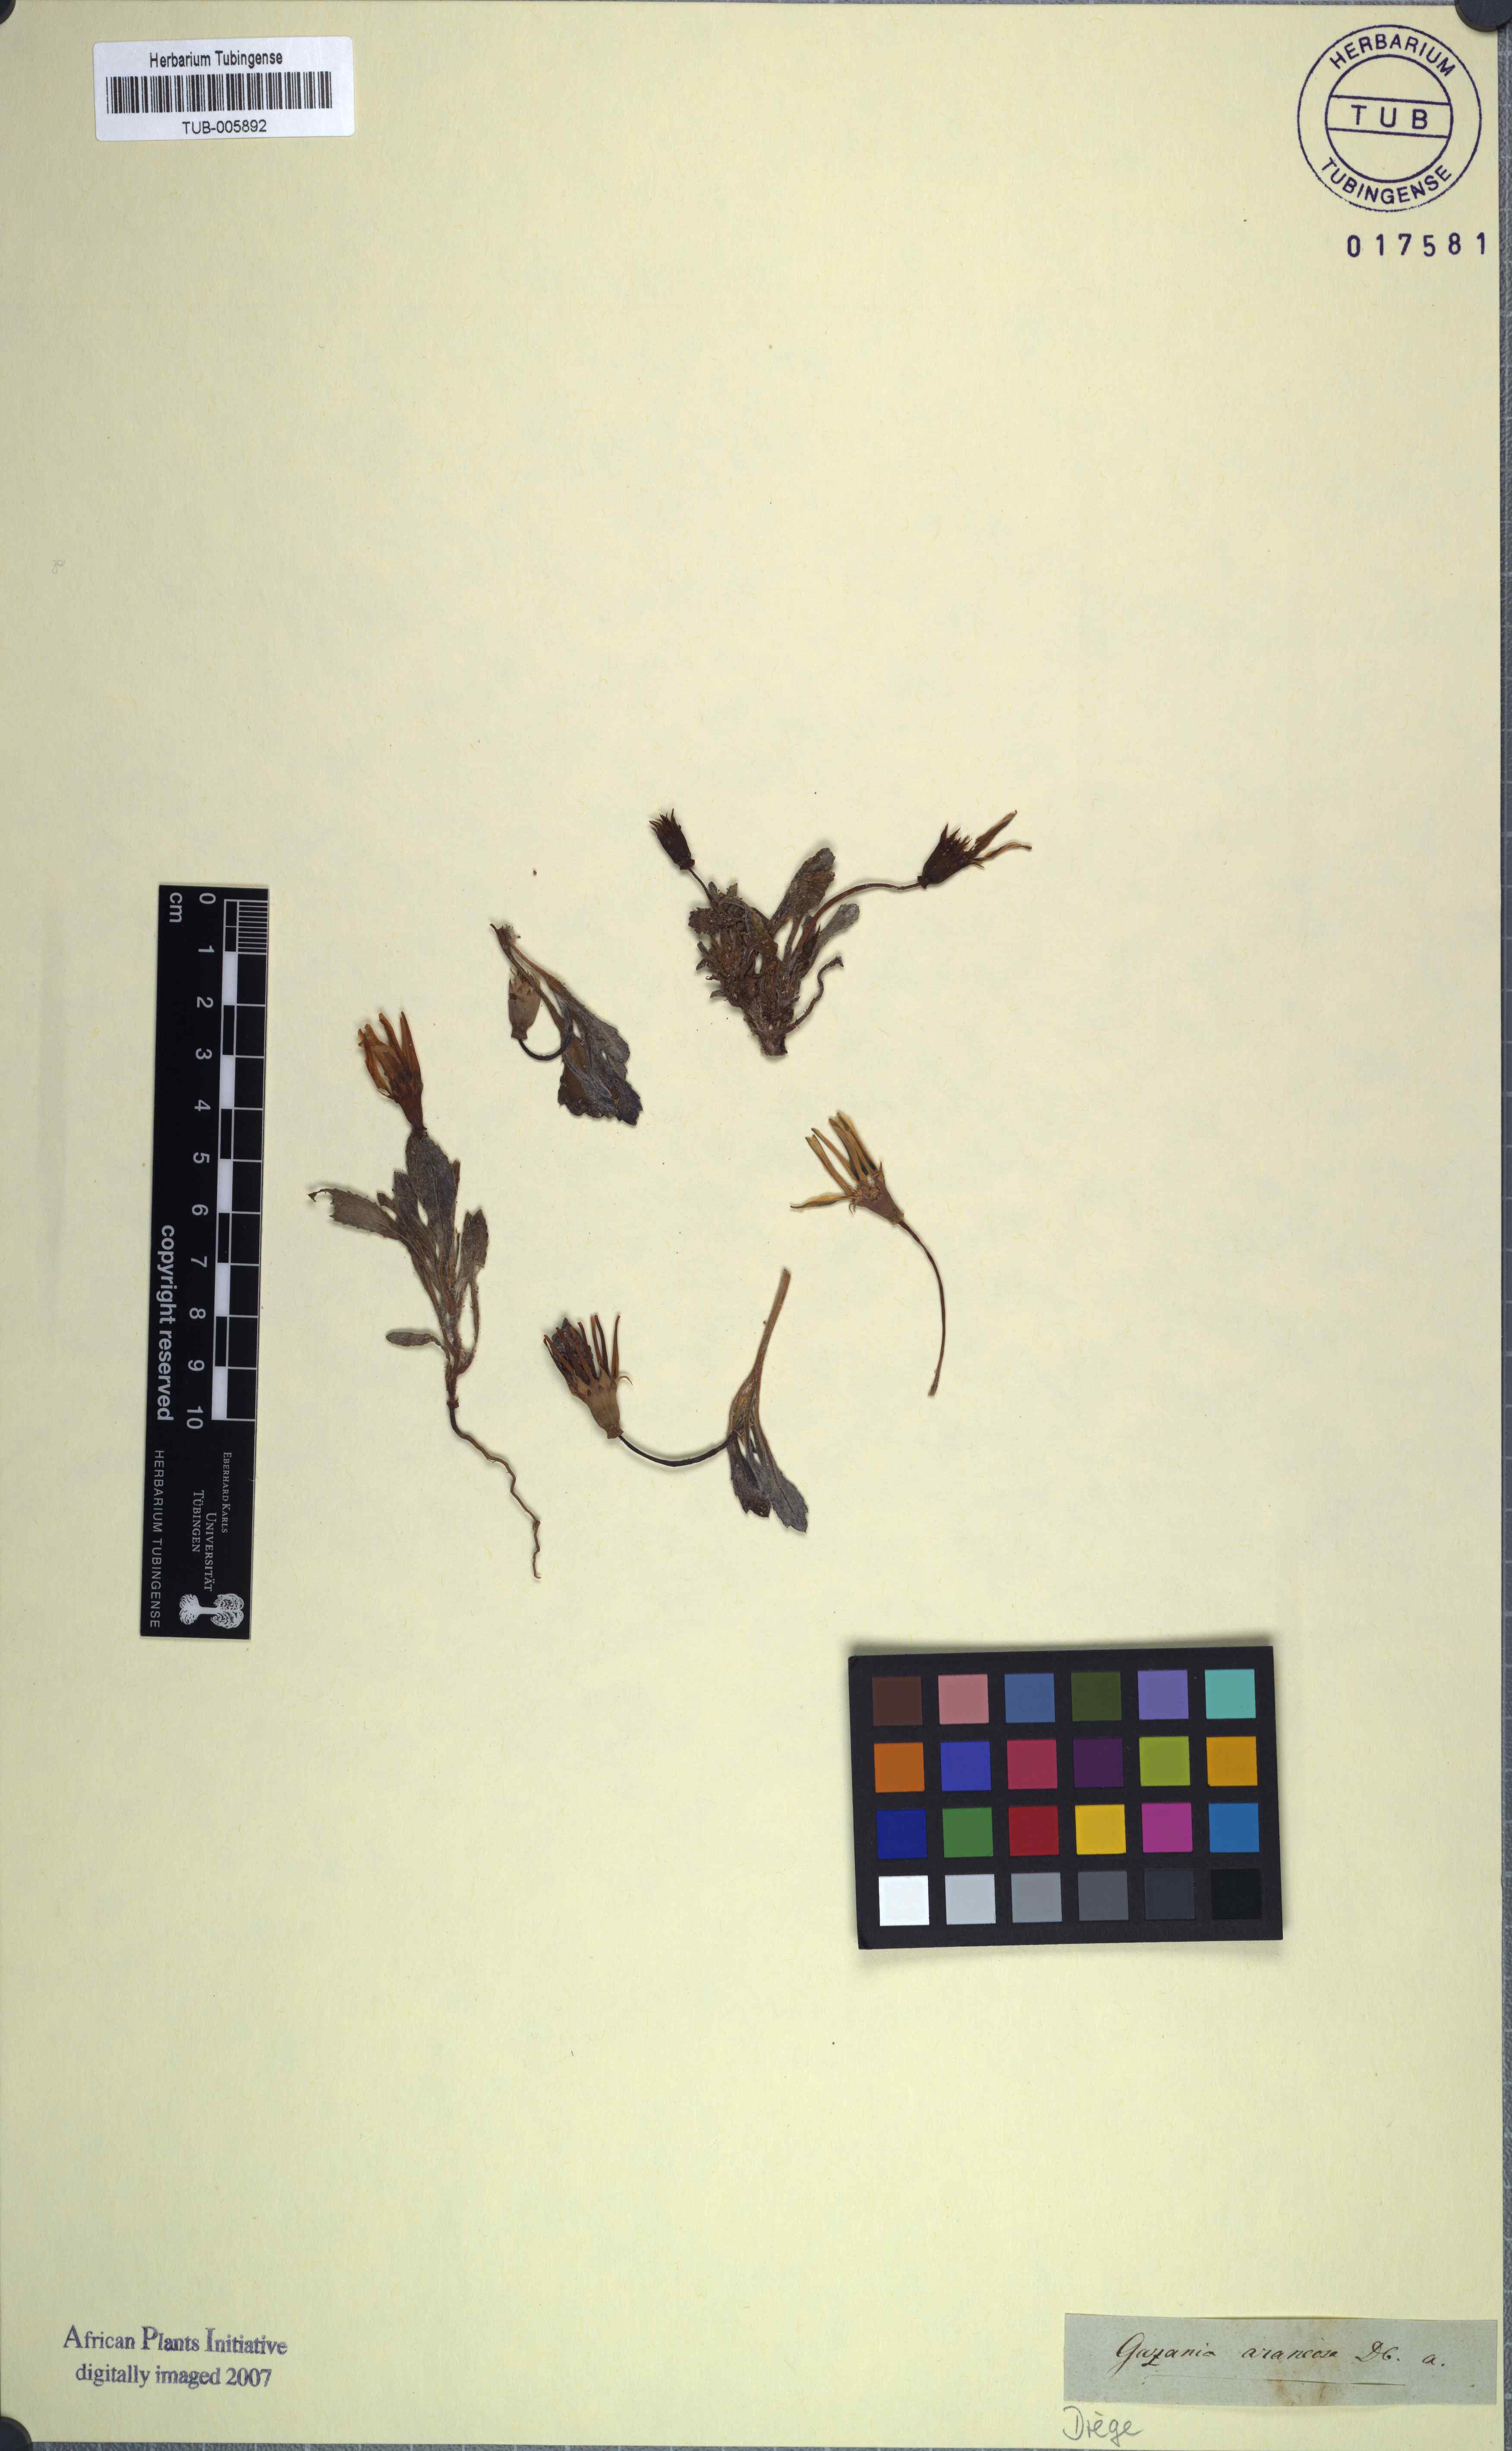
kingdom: Plantae
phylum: Tracheophyta
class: Magnoliopsida
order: Asterales
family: Asteraceae
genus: Gazania
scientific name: Gazania lichtensteinii
